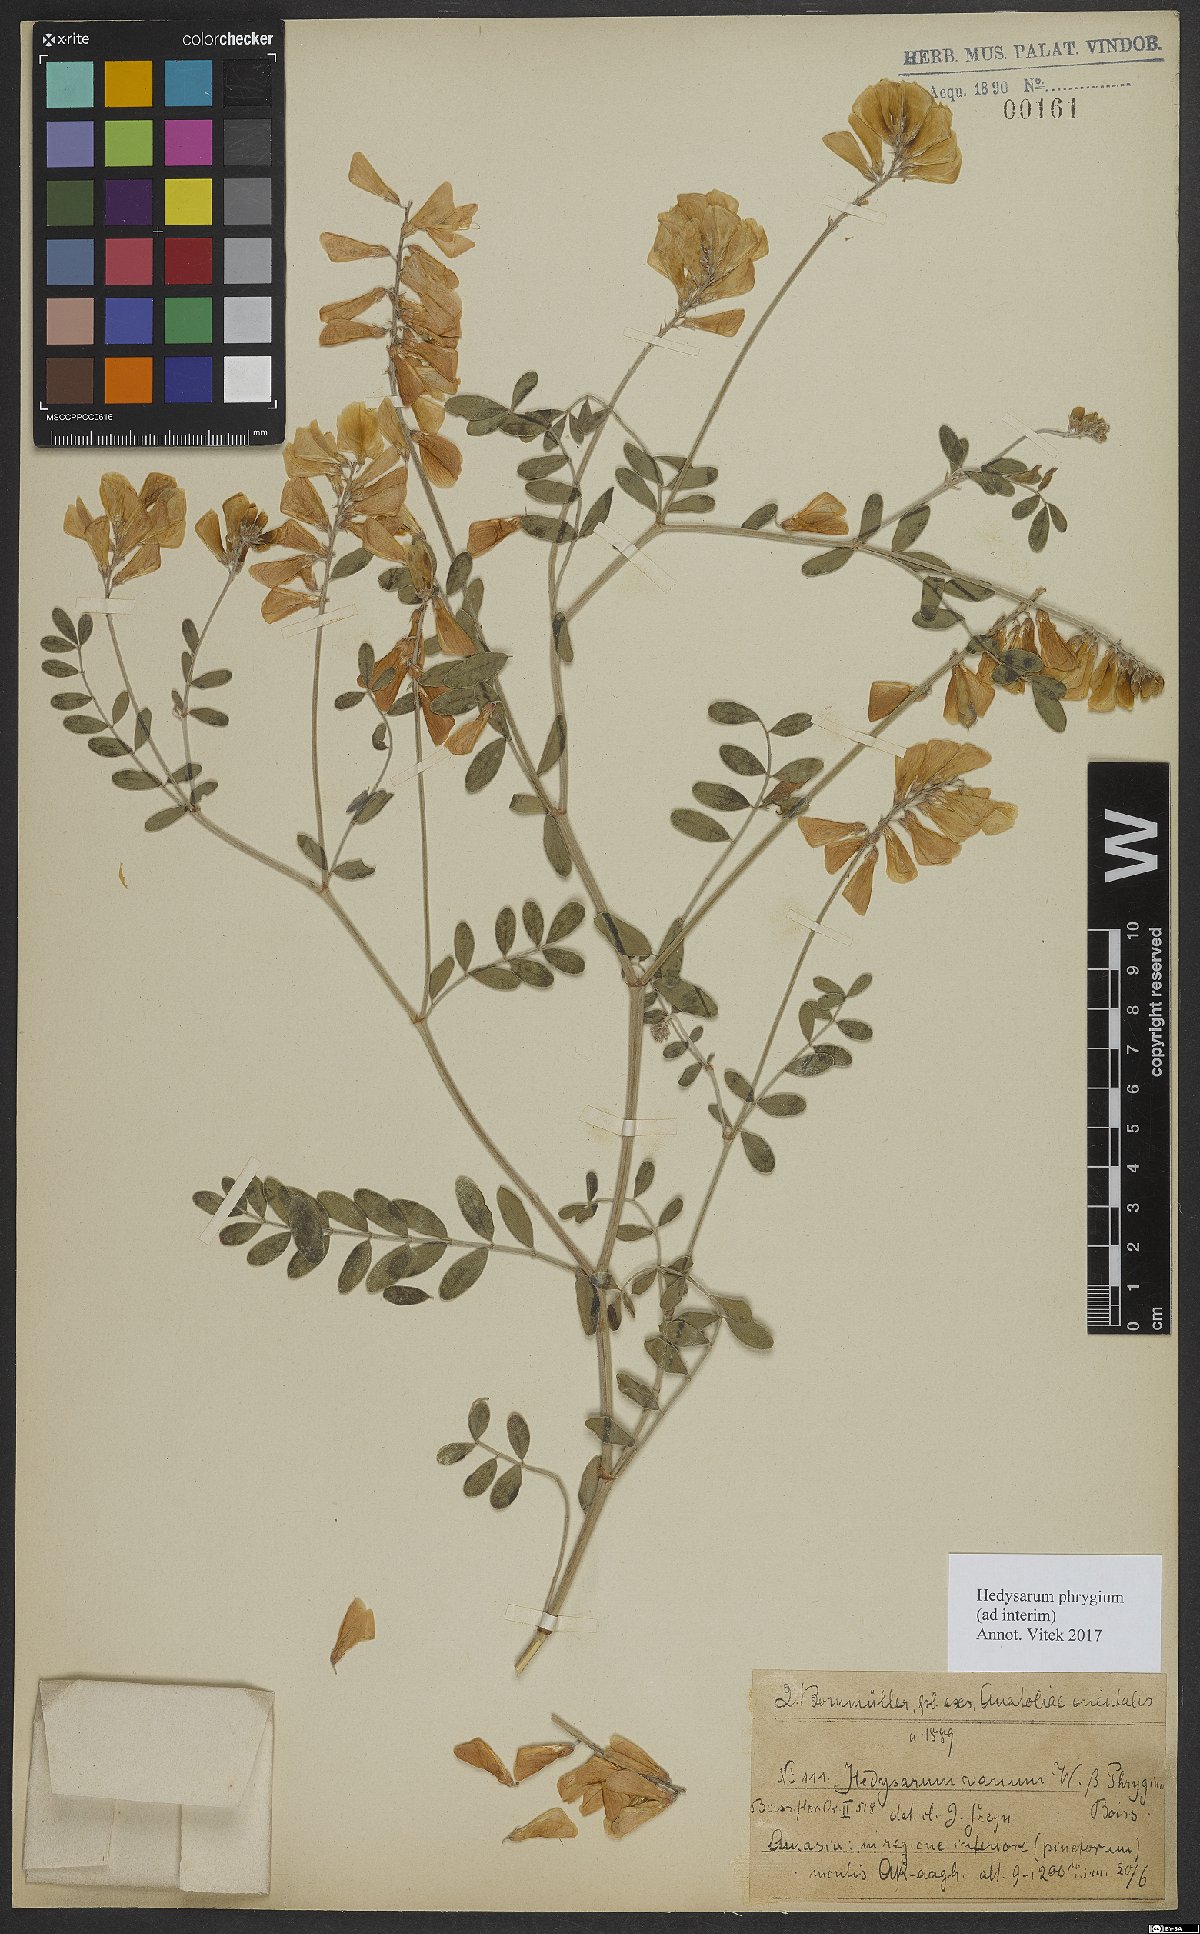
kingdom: Plantae
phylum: Tracheophyta
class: Magnoliopsida
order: Fabales
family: Fabaceae
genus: Hedysarum
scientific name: Hedysarum varium
